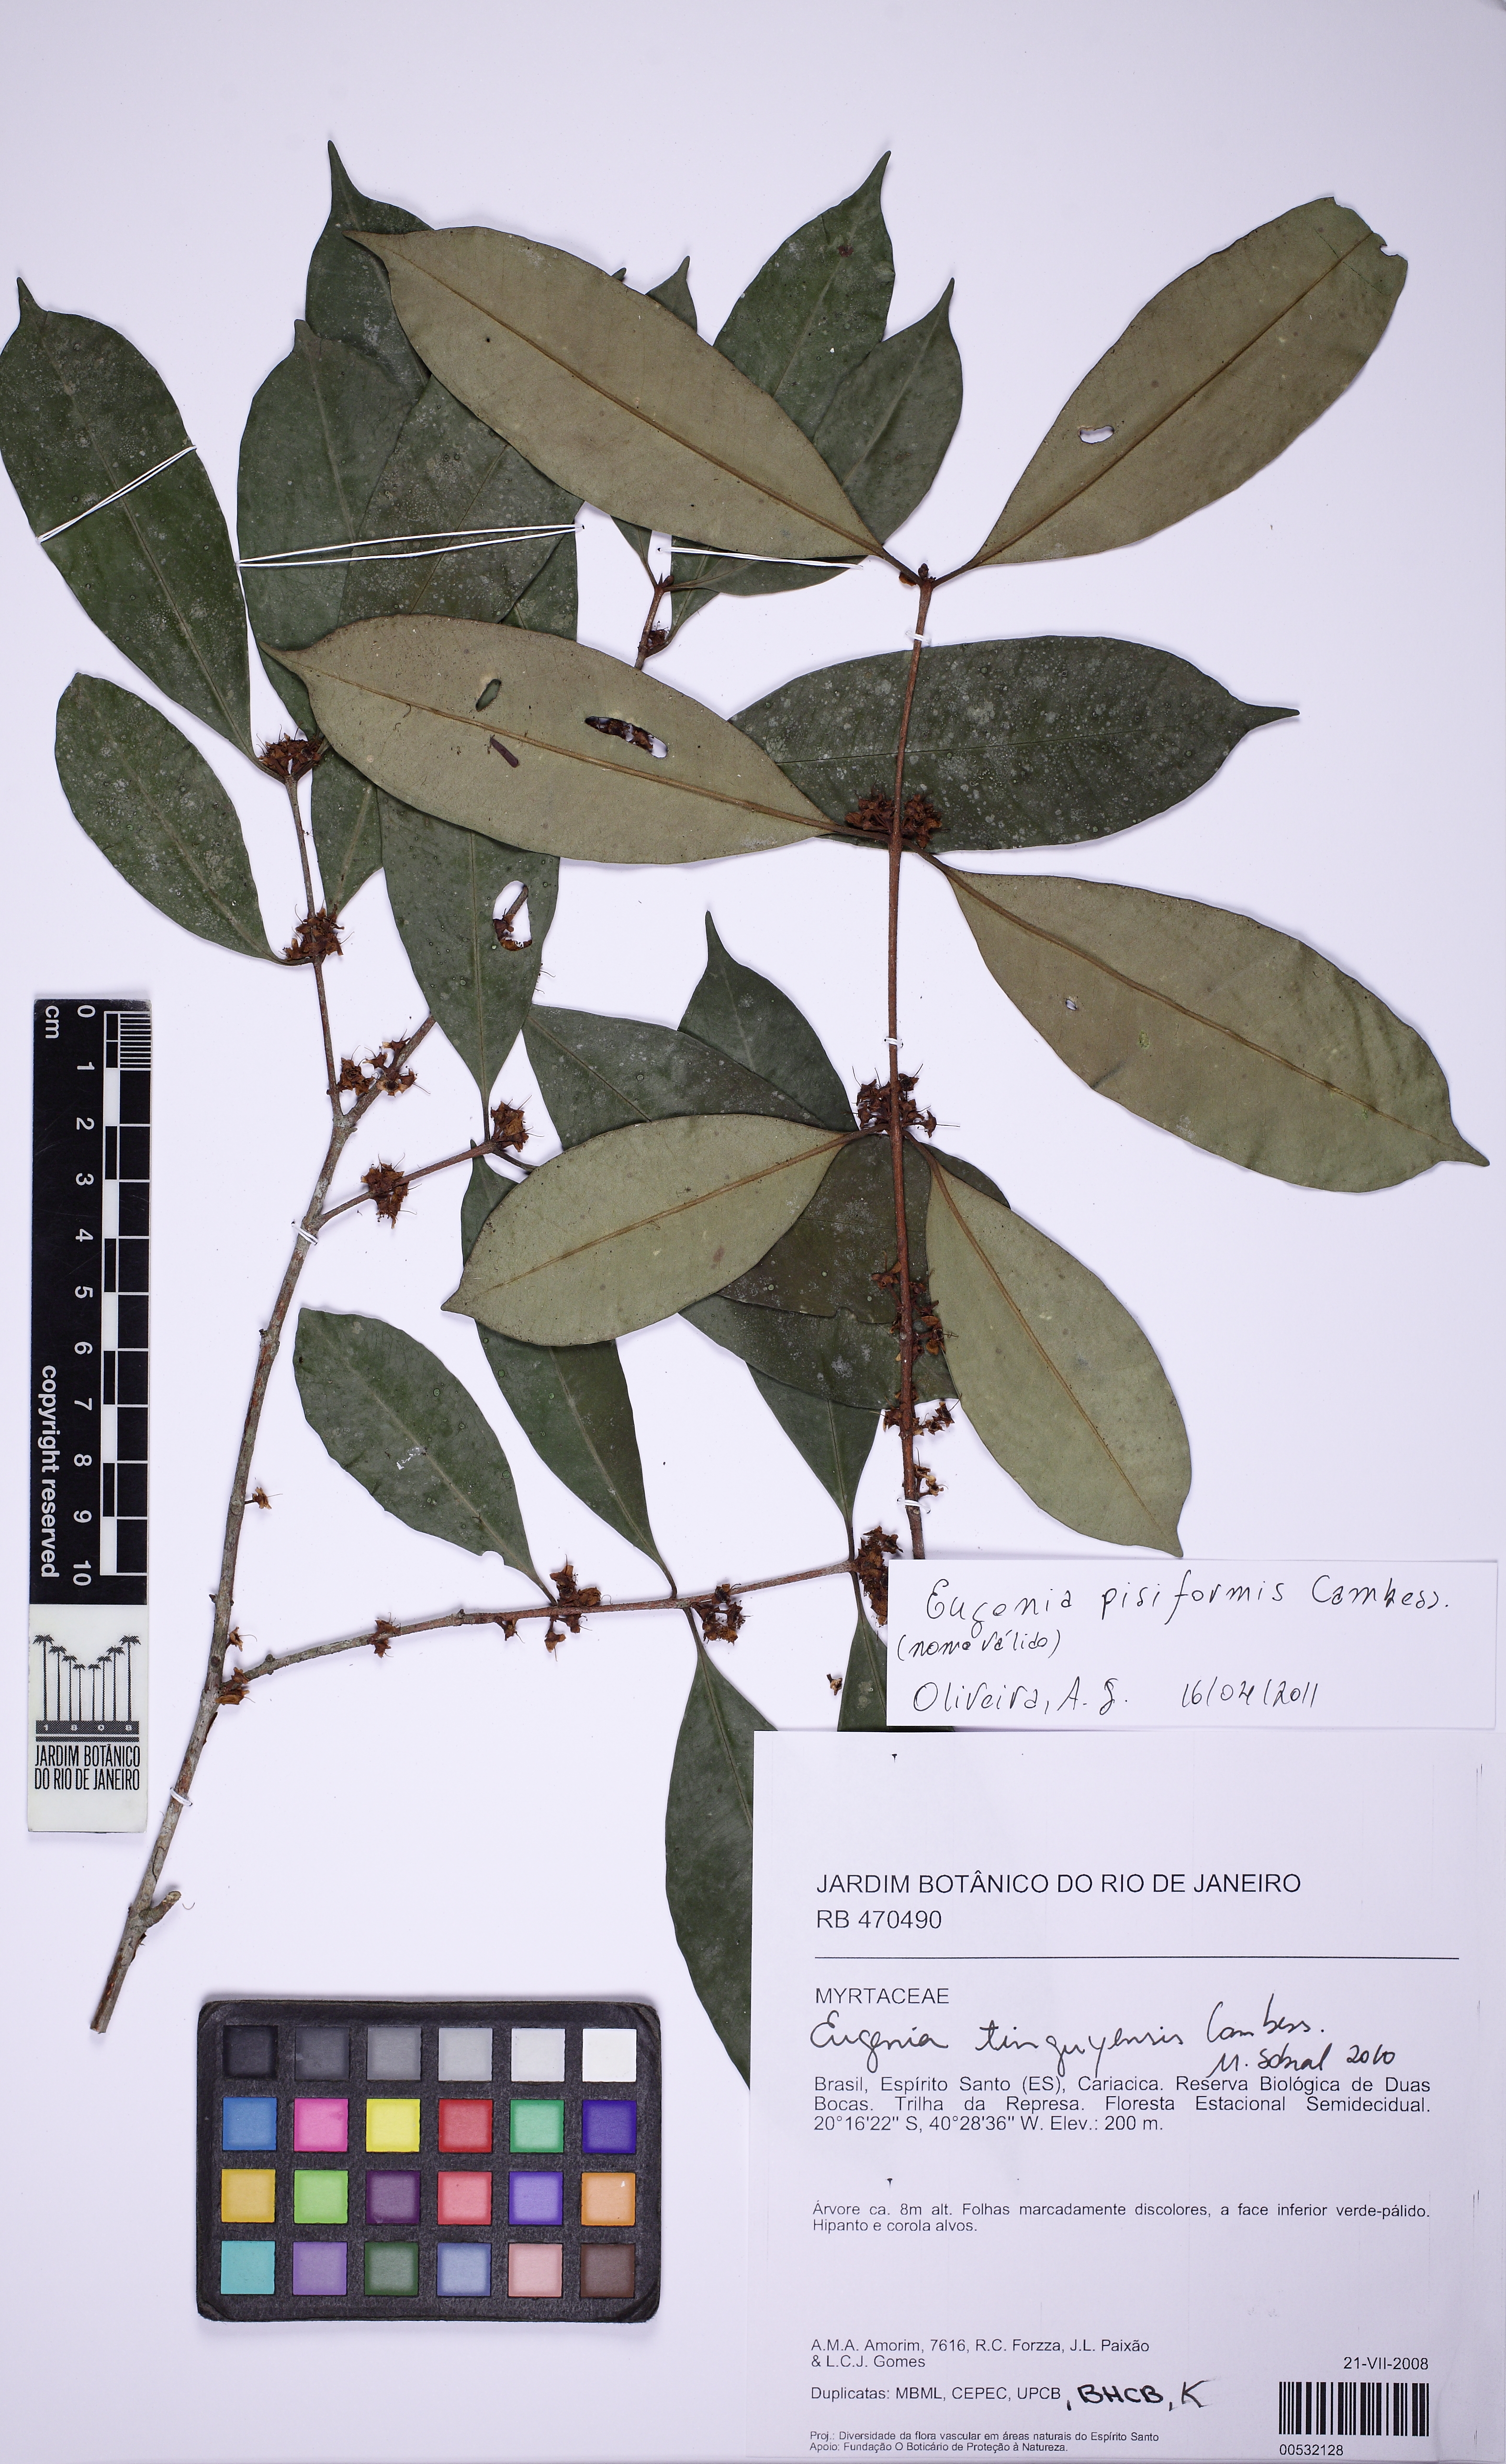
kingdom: Plantae
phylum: Tracheophyta
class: Magnoliopsida
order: Myrtales
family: Myrtaceae
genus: Eugenia
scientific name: Eugenia pisiformis
